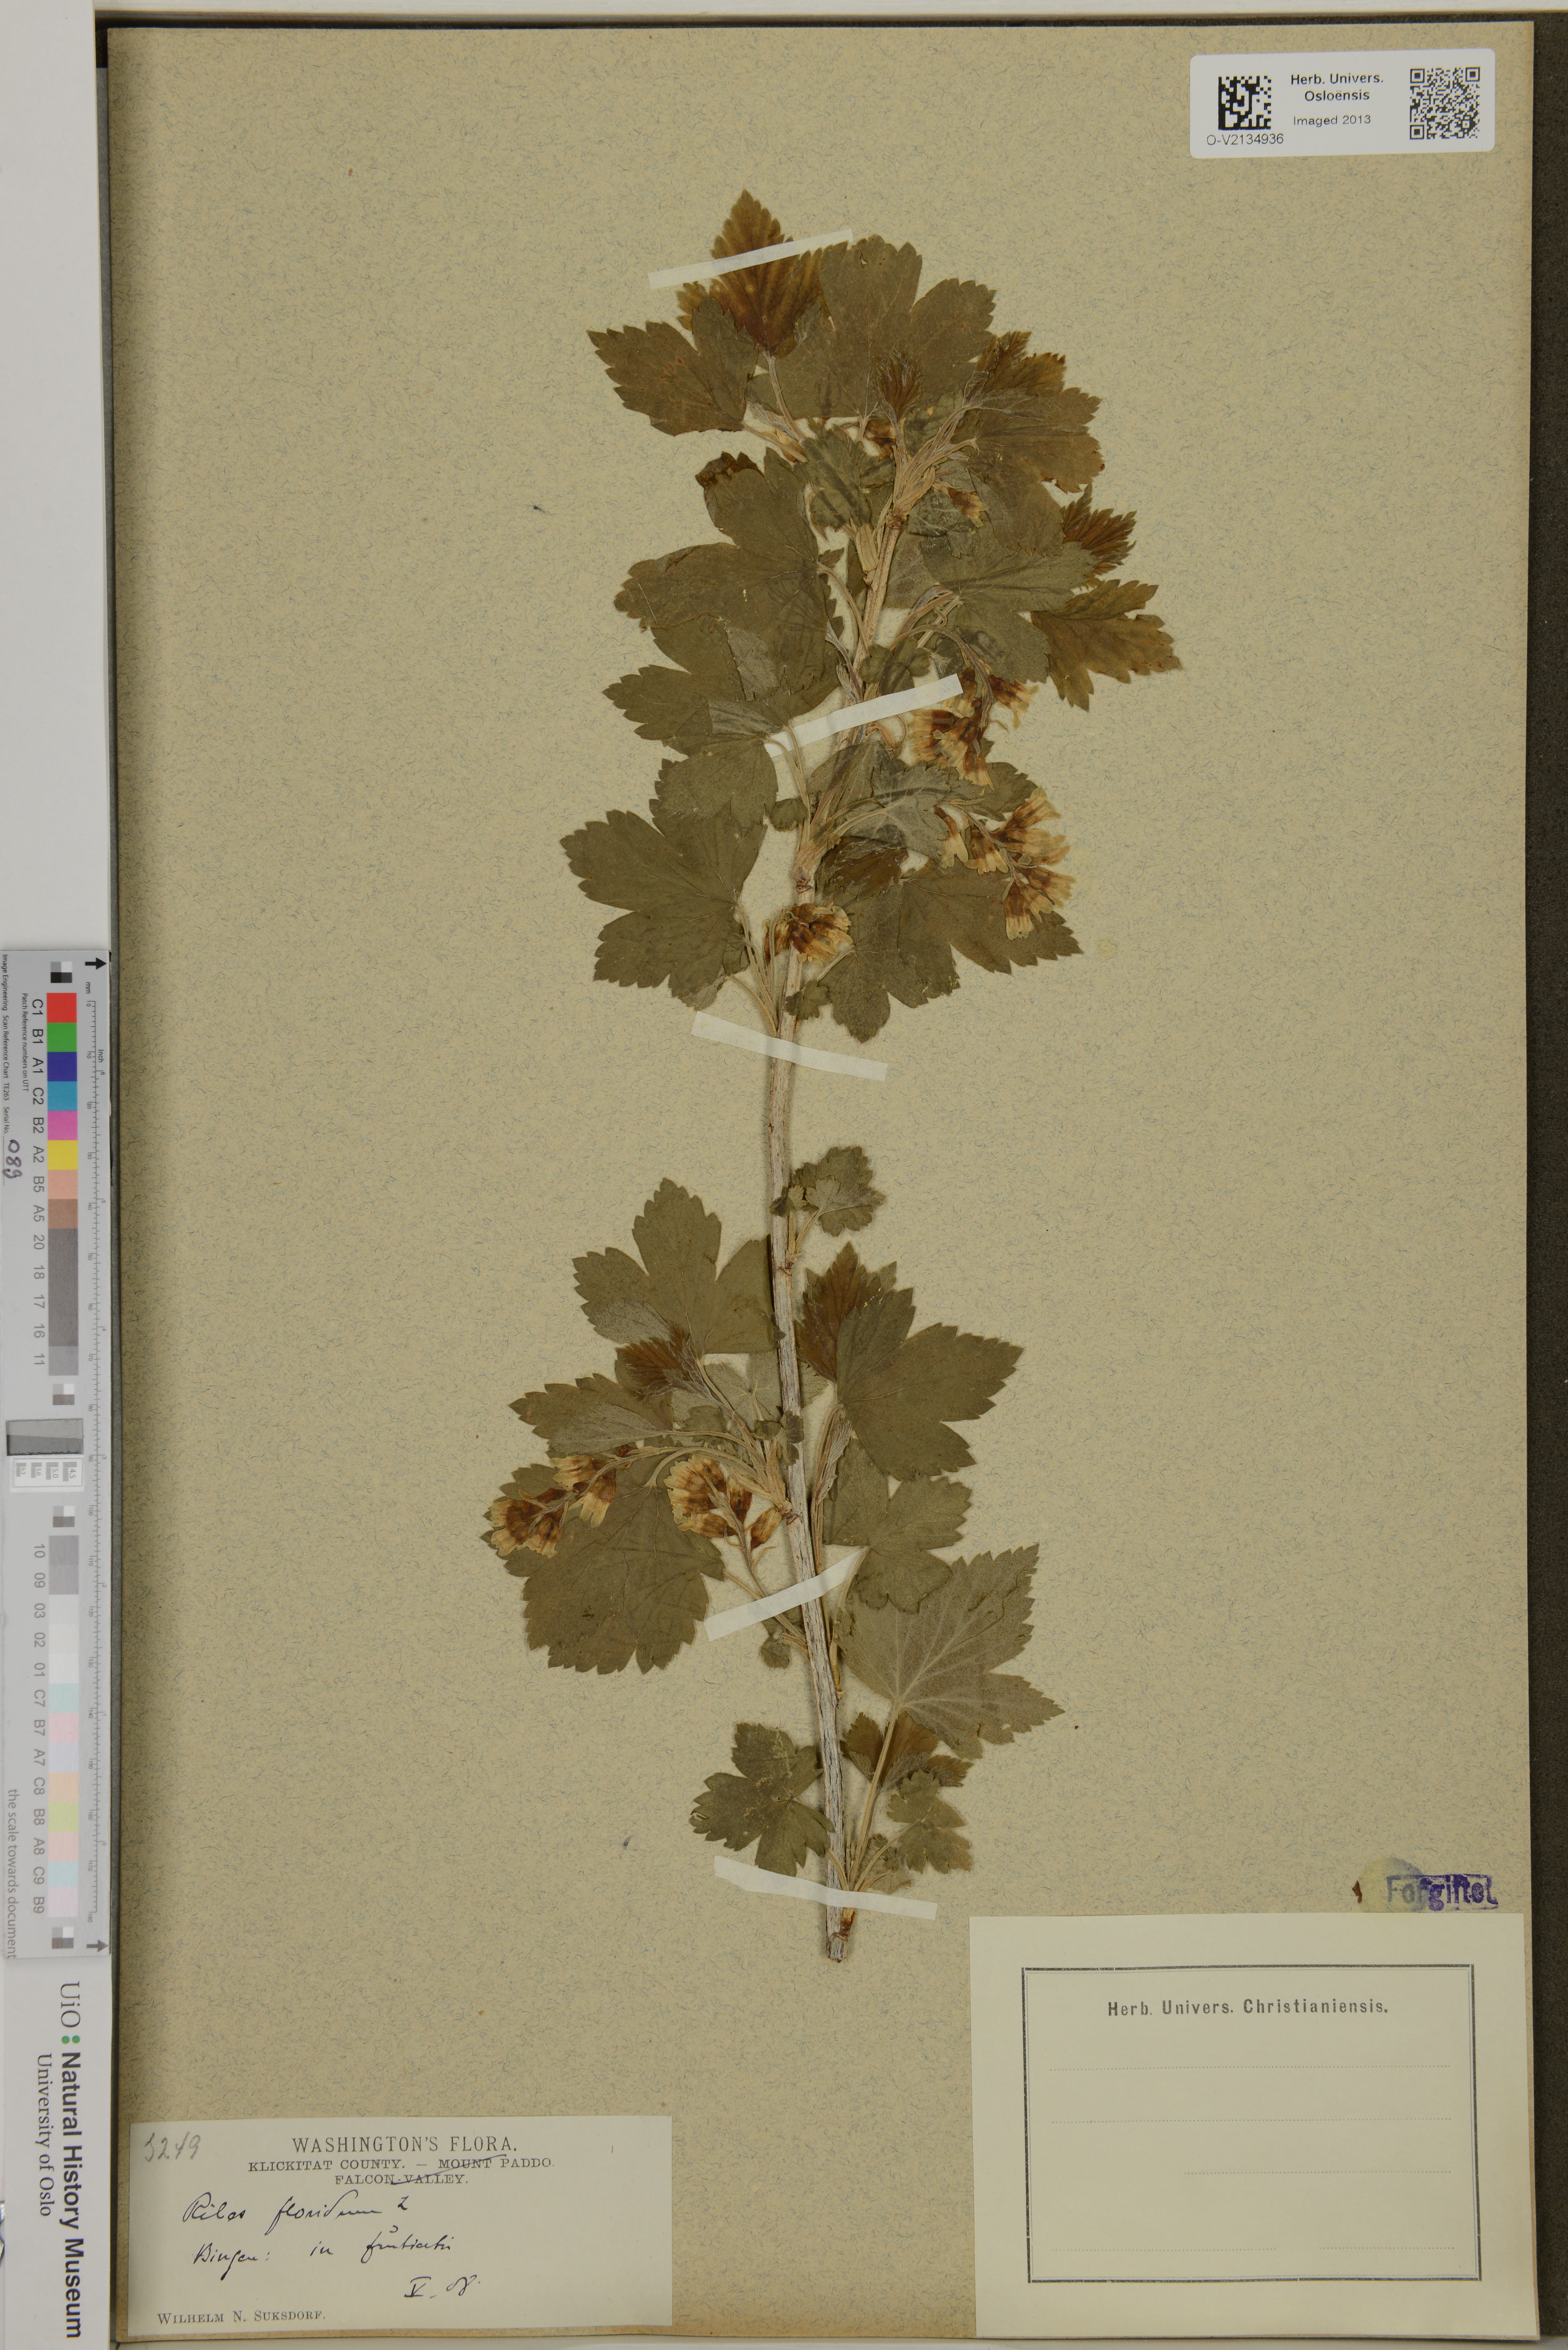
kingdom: Plantae
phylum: Tracheophyta
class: Magnoliopsida
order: Saxifragales
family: Grossulariaceae
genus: Ribes
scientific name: Ribes
